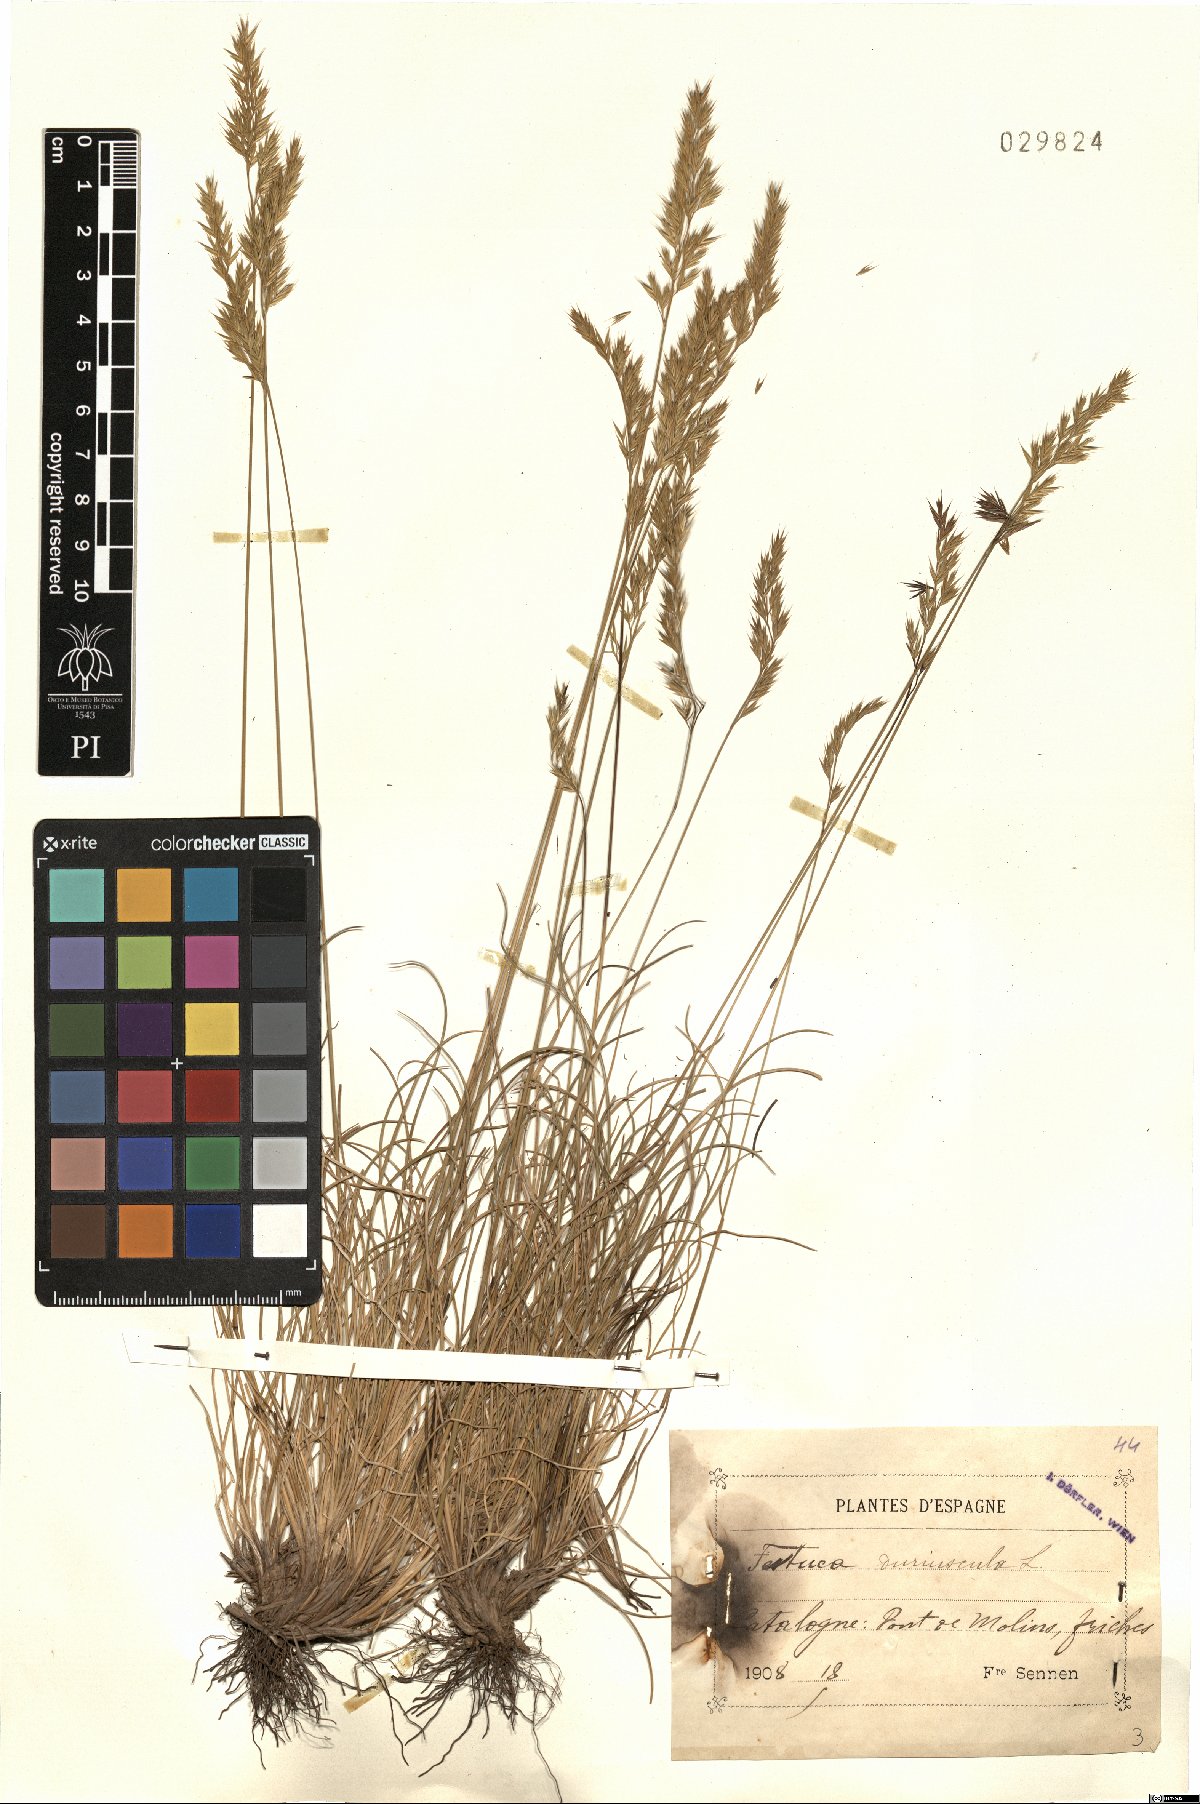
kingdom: Plantae
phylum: Tracheophyta
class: Liliopsida
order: Poales
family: Poaceae
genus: Festuca
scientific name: Festuca rubra
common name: Red fescue
